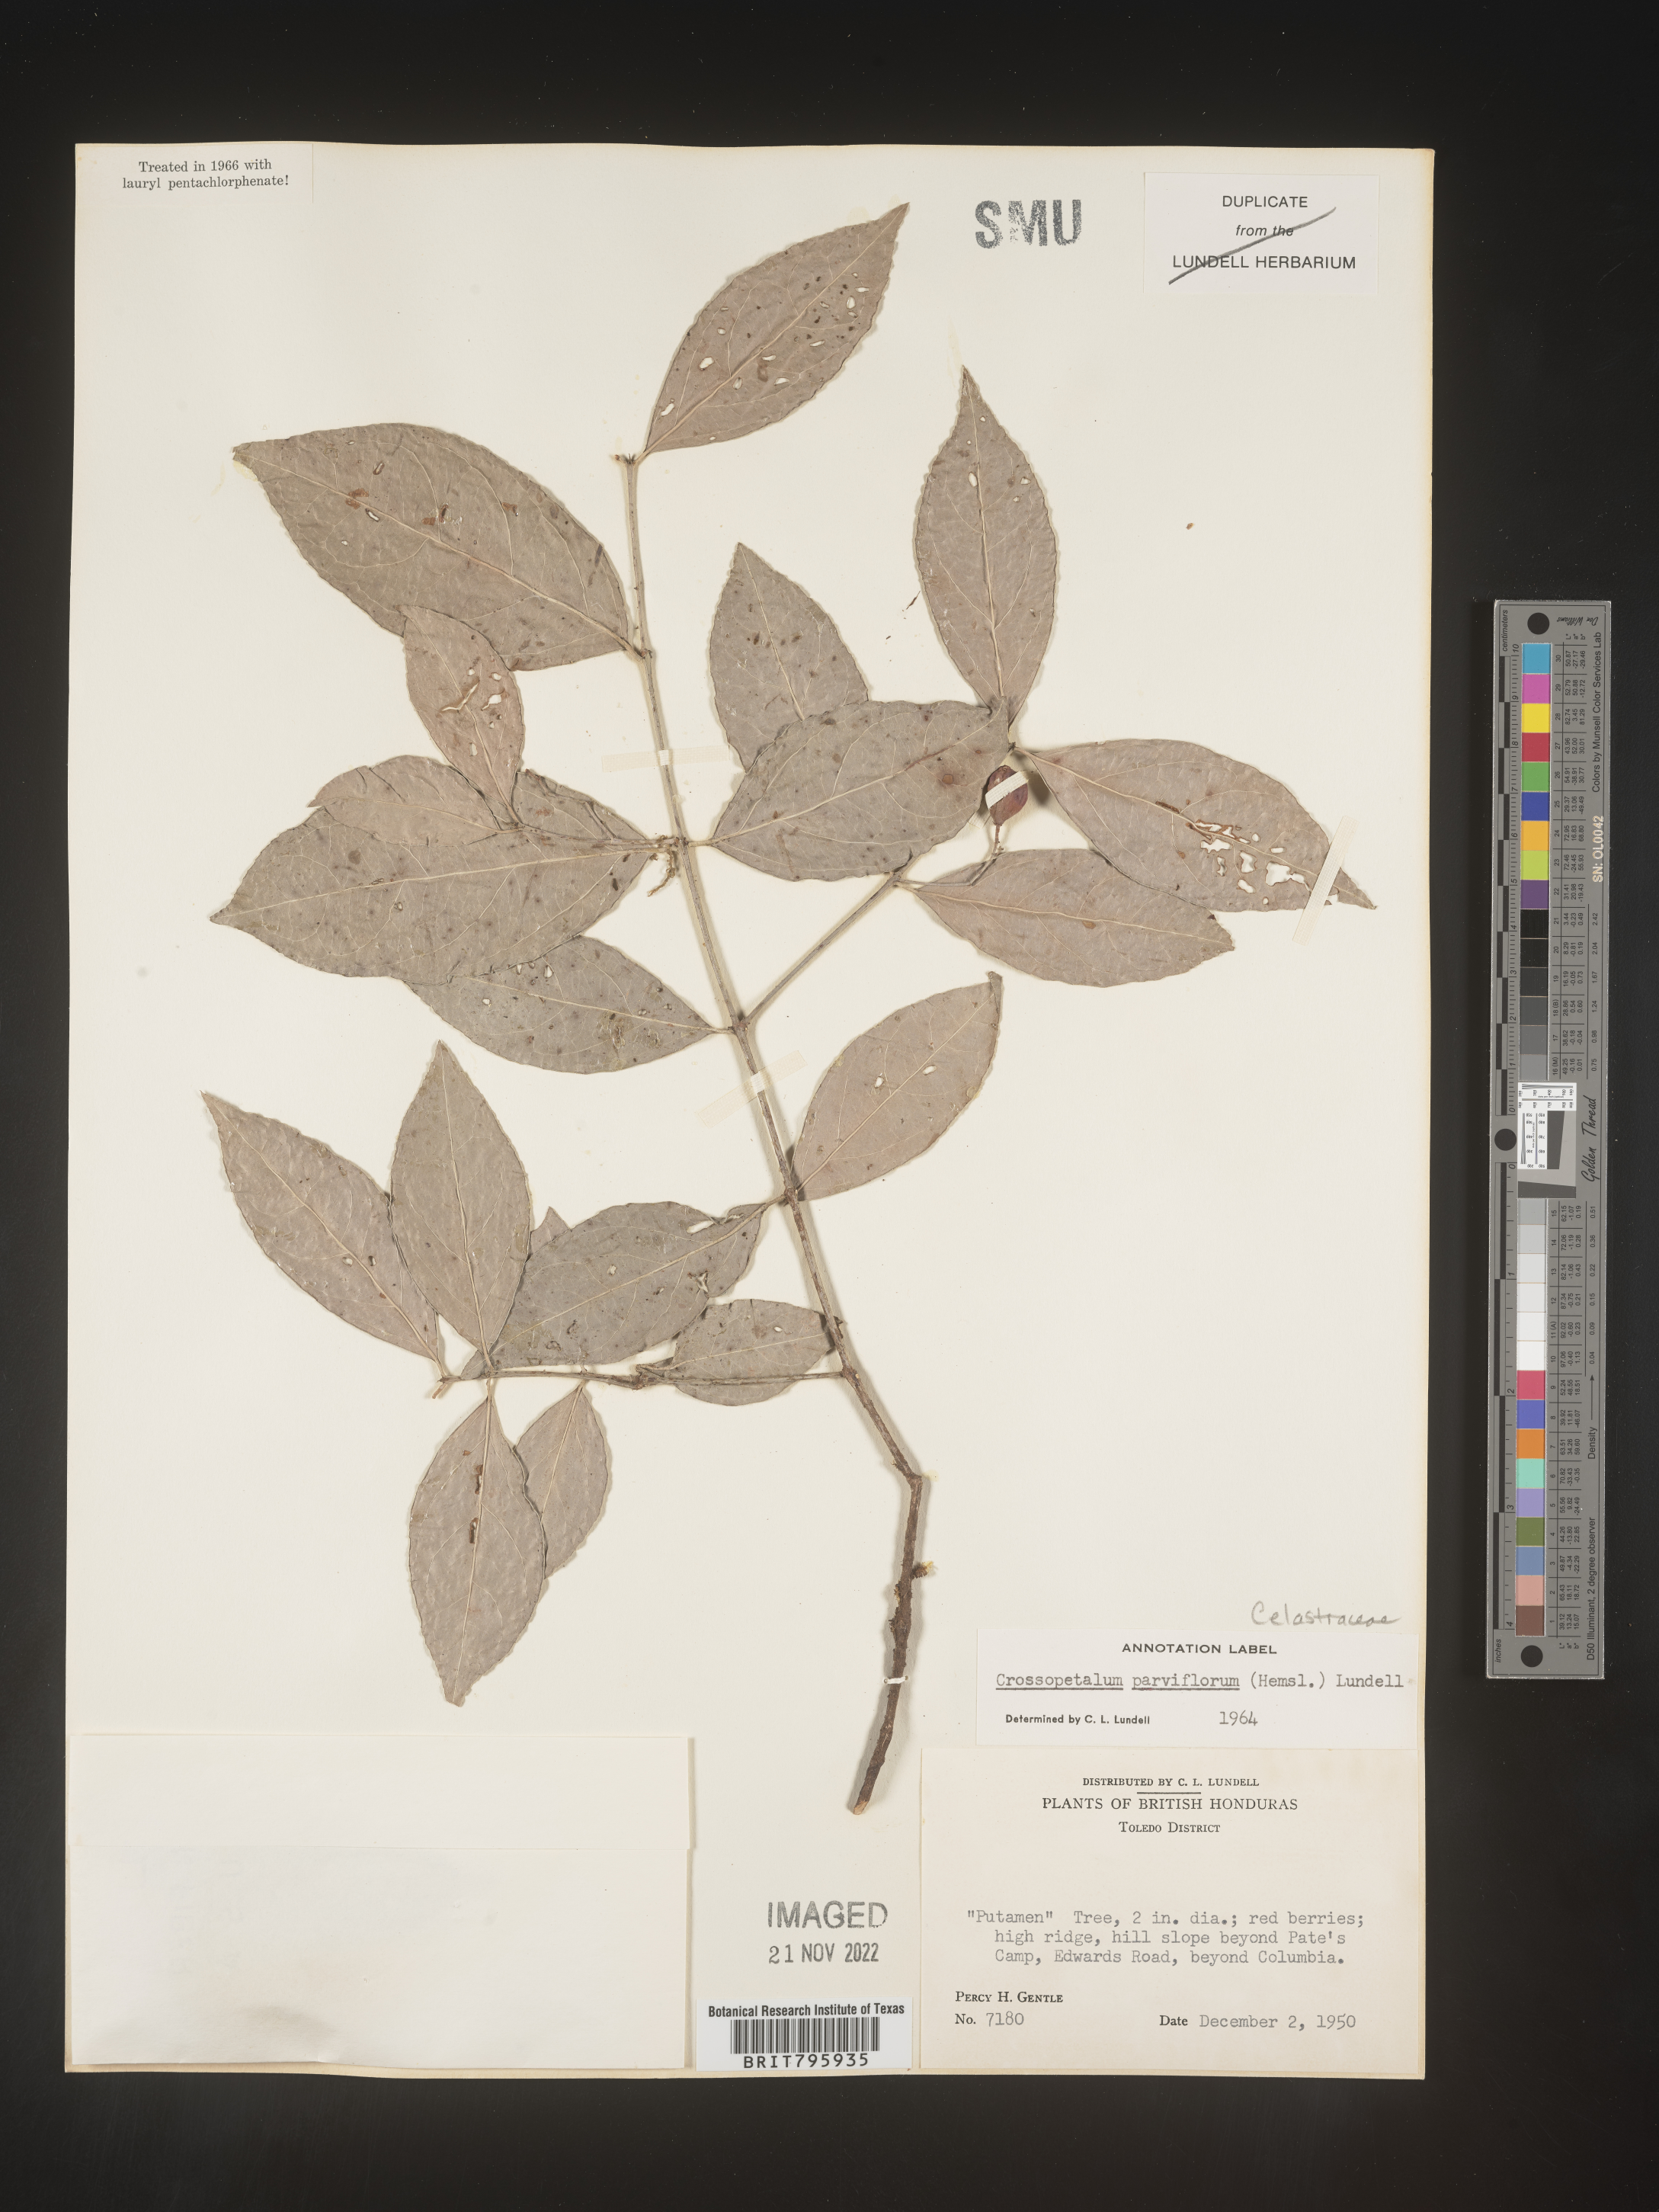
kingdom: Plantae
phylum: Tracheophyta
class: Magnoliopsida
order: Celastrales
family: Celastraceae
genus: Crossopetalum
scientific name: Crossopetalum parviflorum
